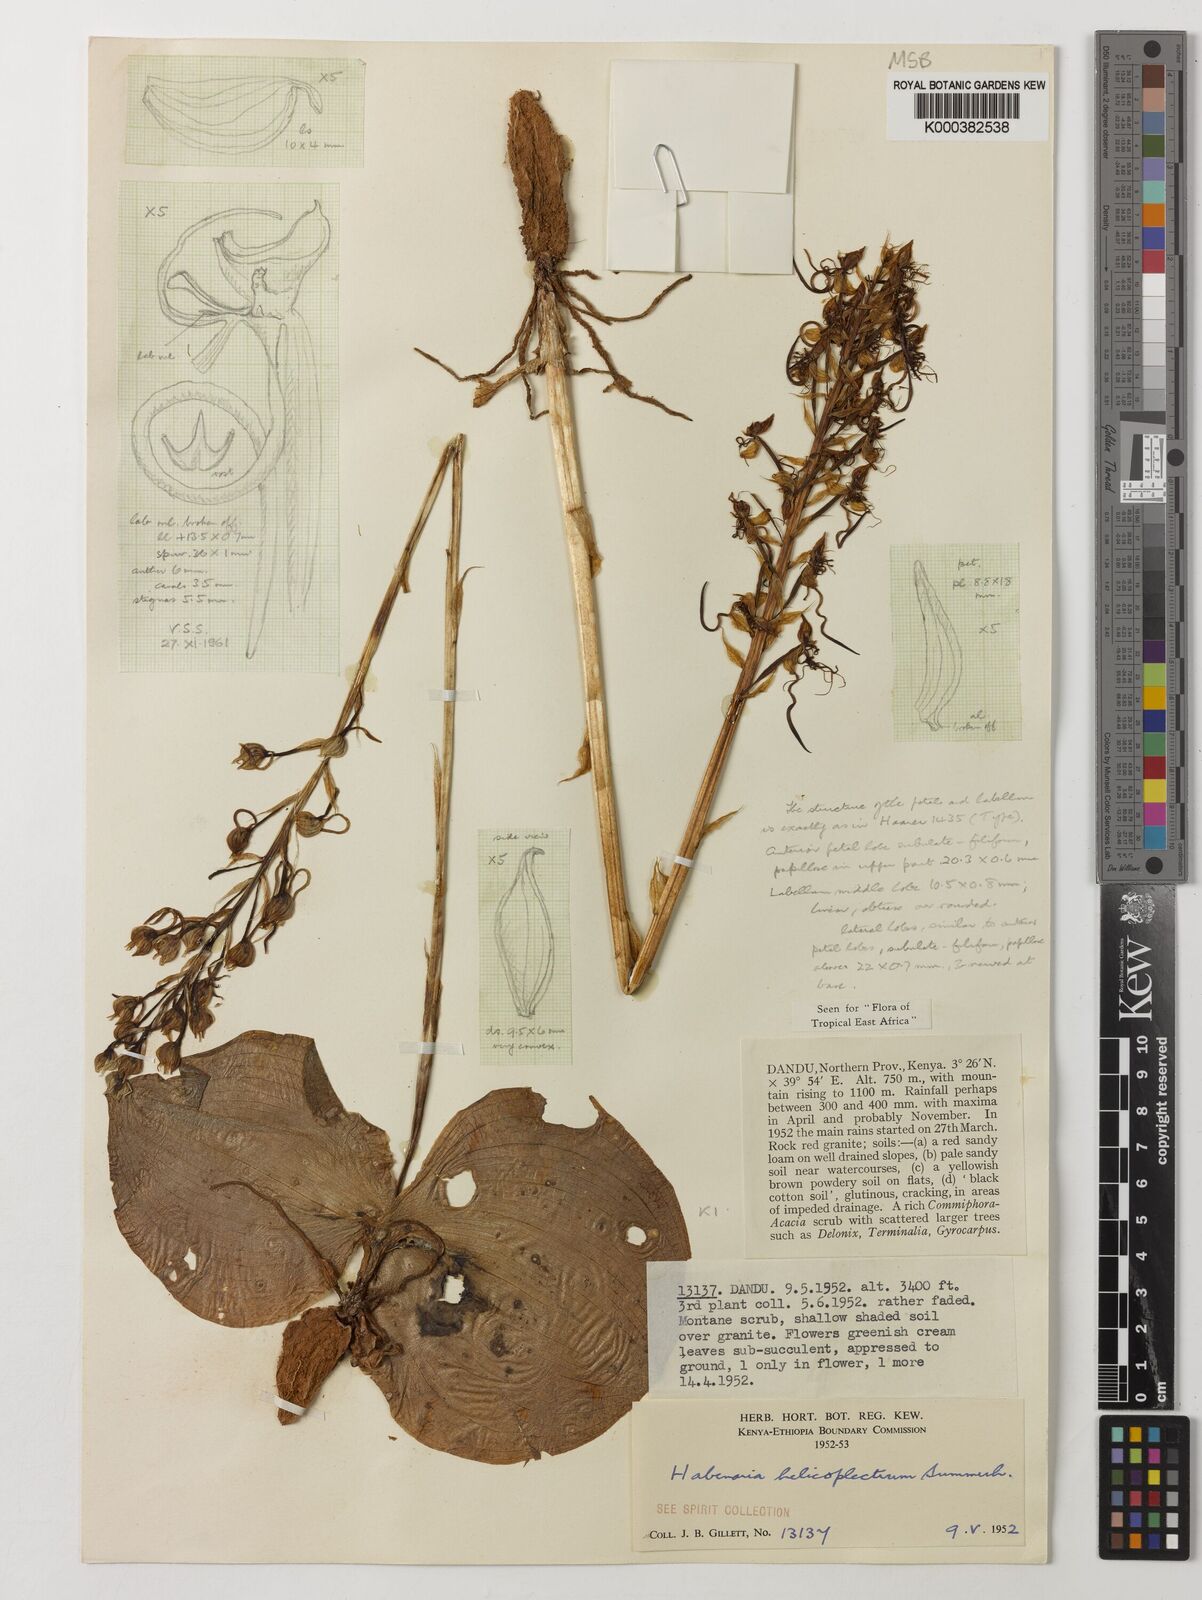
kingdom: Plantae
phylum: Tracheophyta
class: Liliopsida
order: Asparagales
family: Orchidaceae
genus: Habenaria
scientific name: Habenaria helicoplectrum
